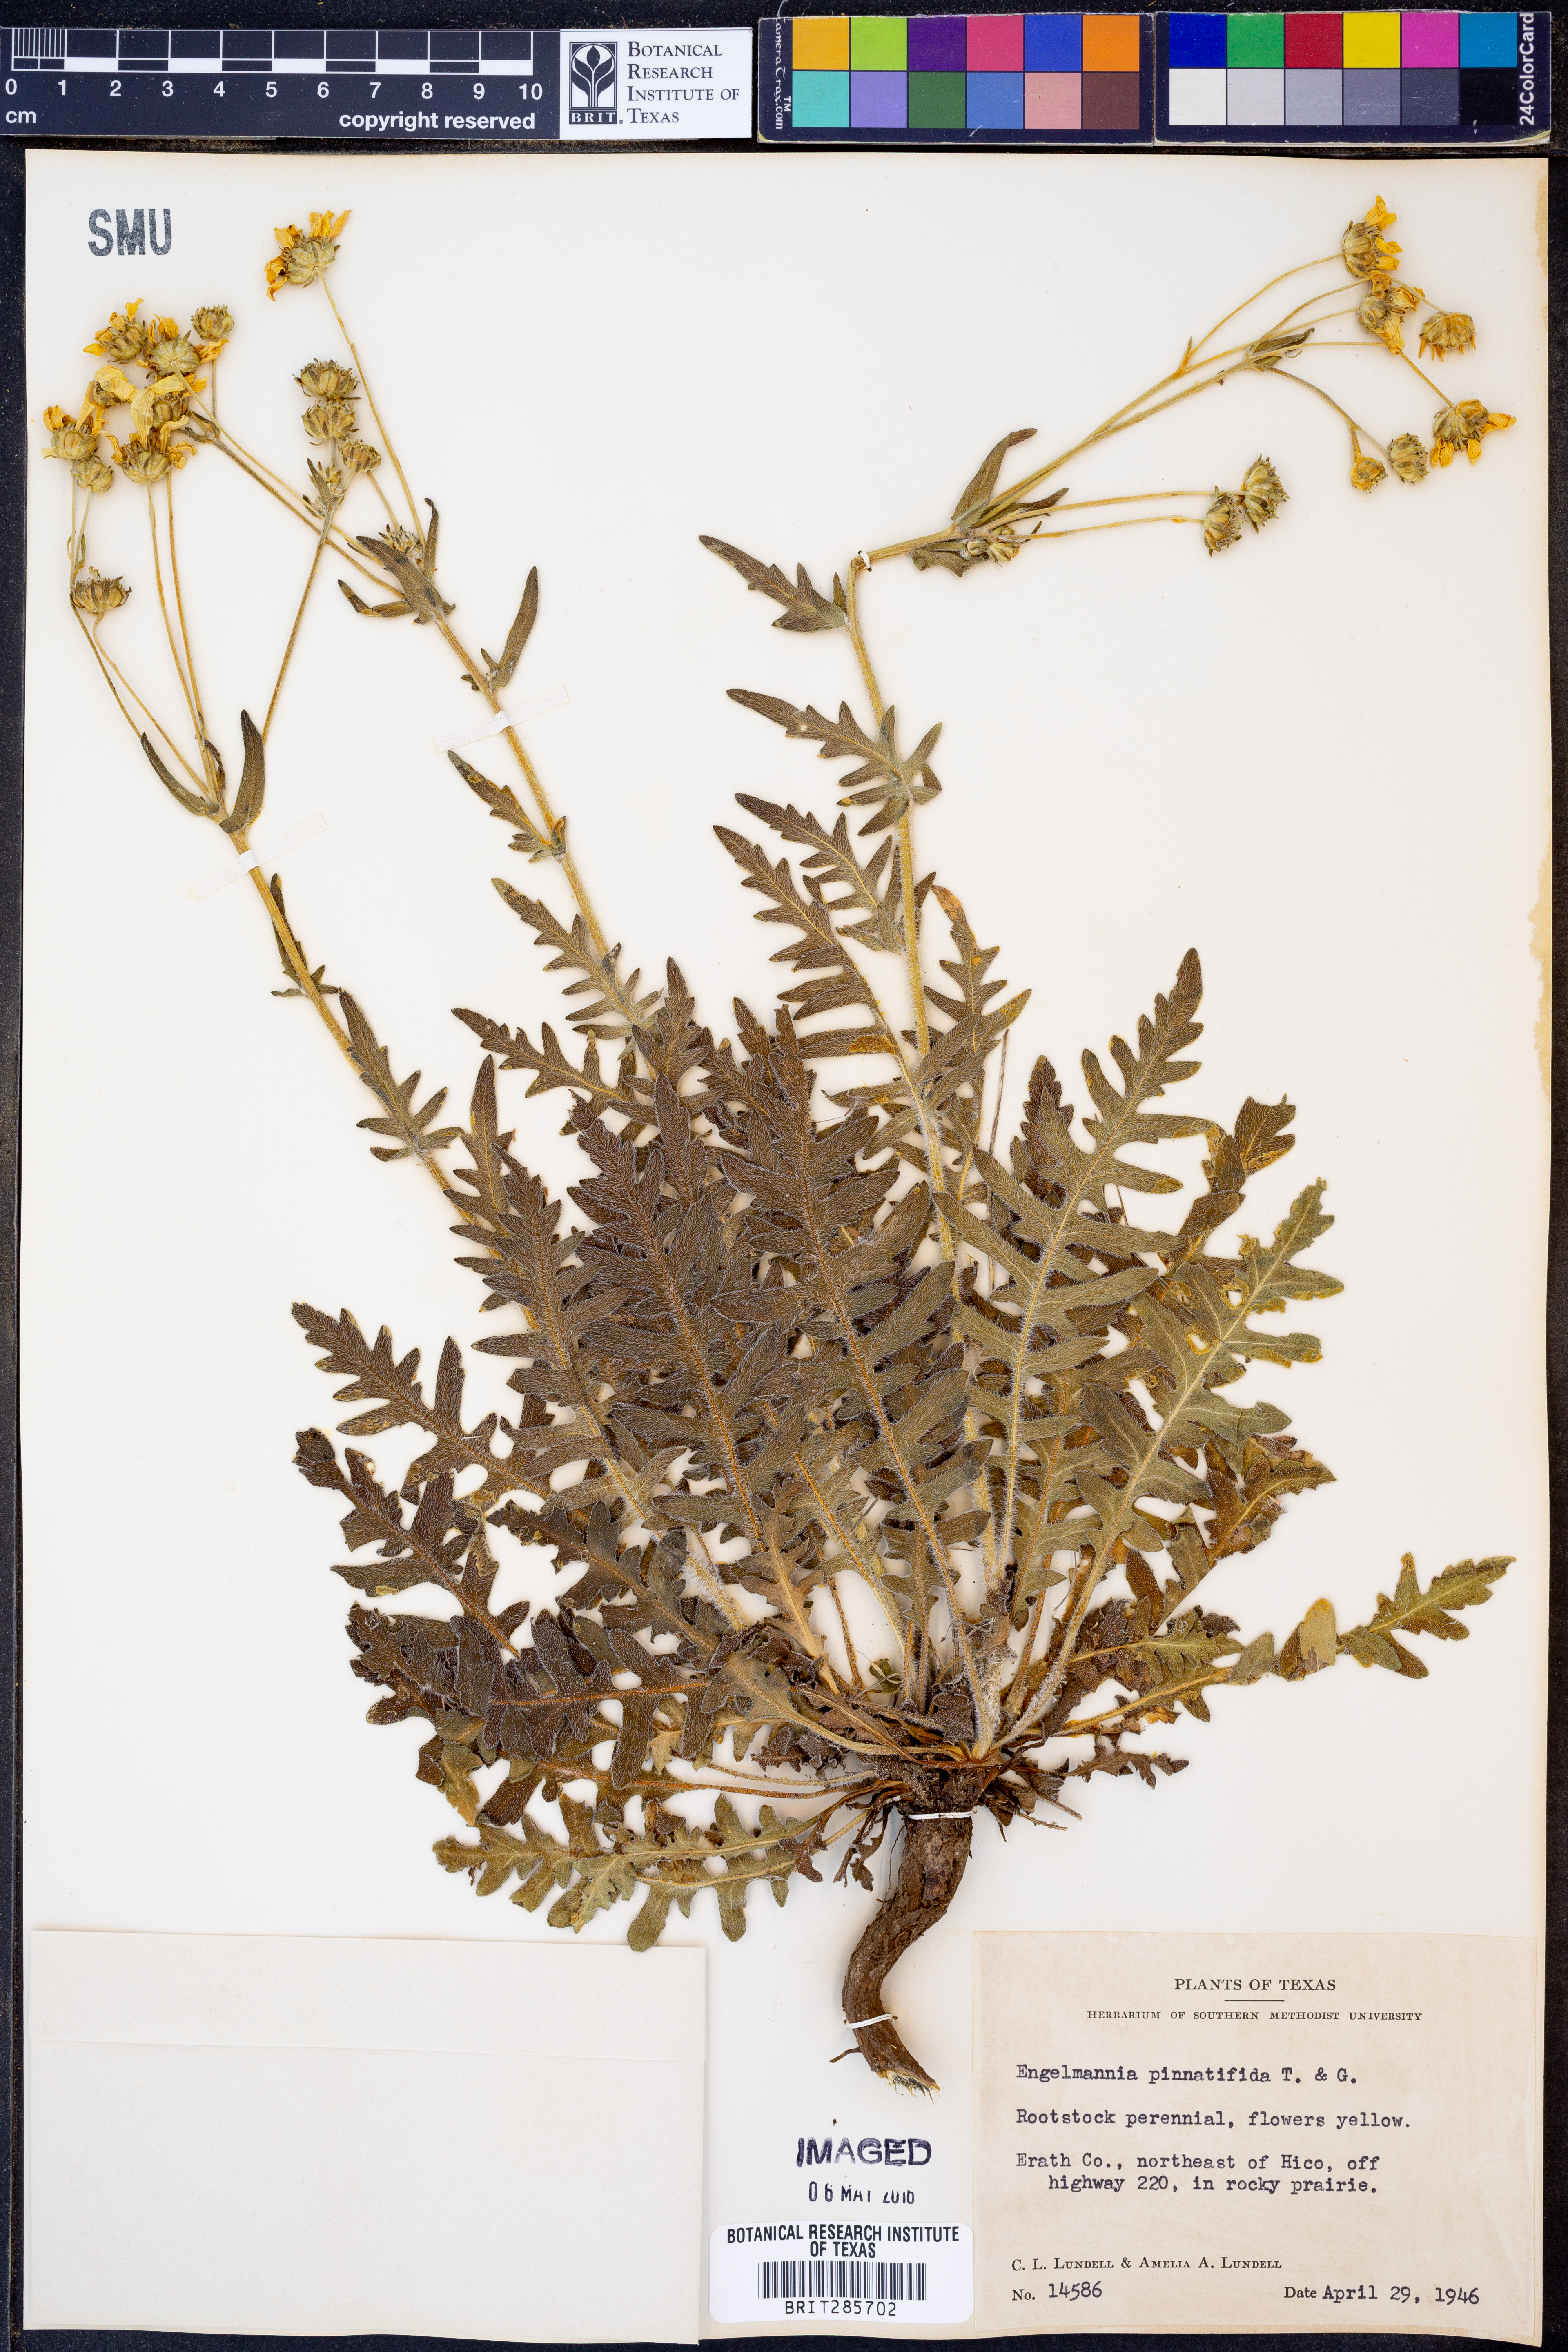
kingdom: Plantae
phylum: Tracheophyta
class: Magnoliopsida
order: Asterales
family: Asteraceae
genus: Engelmannia
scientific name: Engelmannia peristenia
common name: Engelmann's daisy
